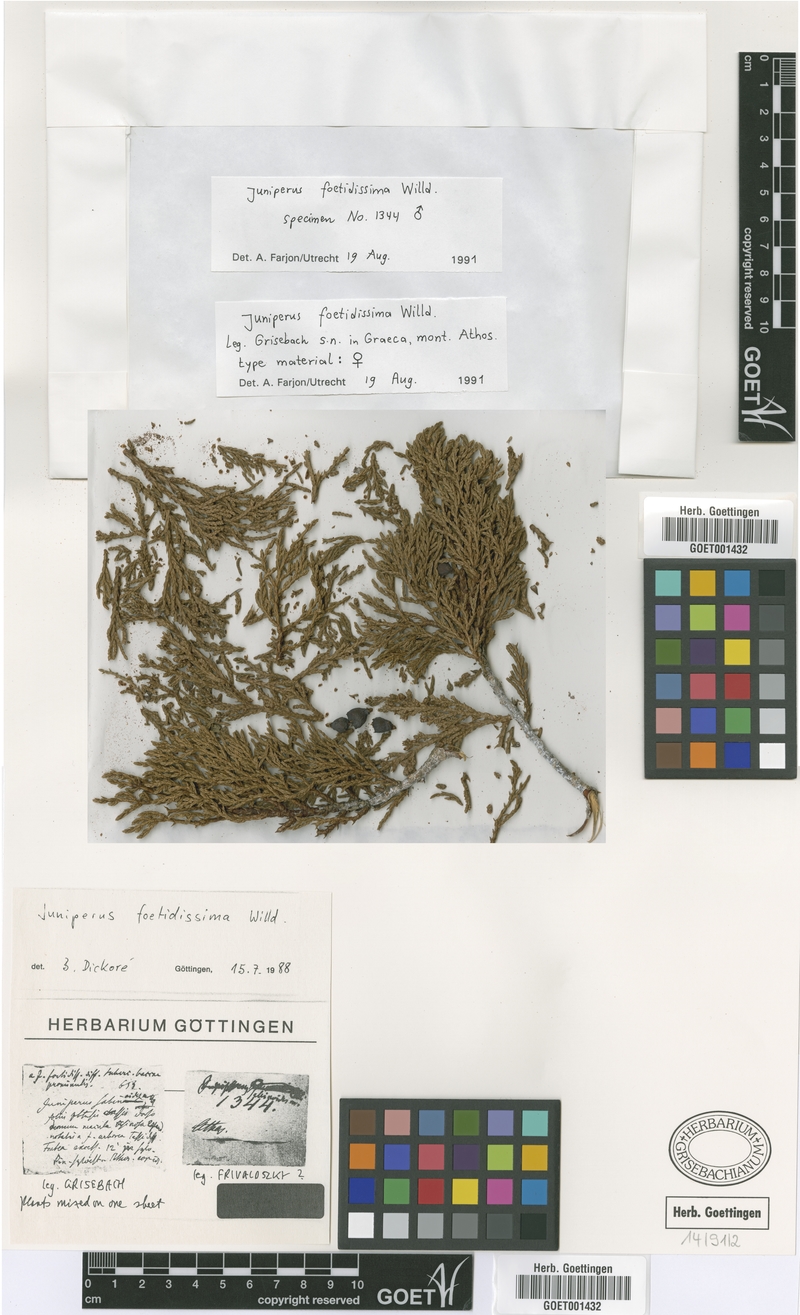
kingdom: Plantae
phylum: Tracheophyta
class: Pinopsida
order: Pinales
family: Cupressaceae
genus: Juniperus
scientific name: Juniperus foetidissima
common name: Stinking juniper
